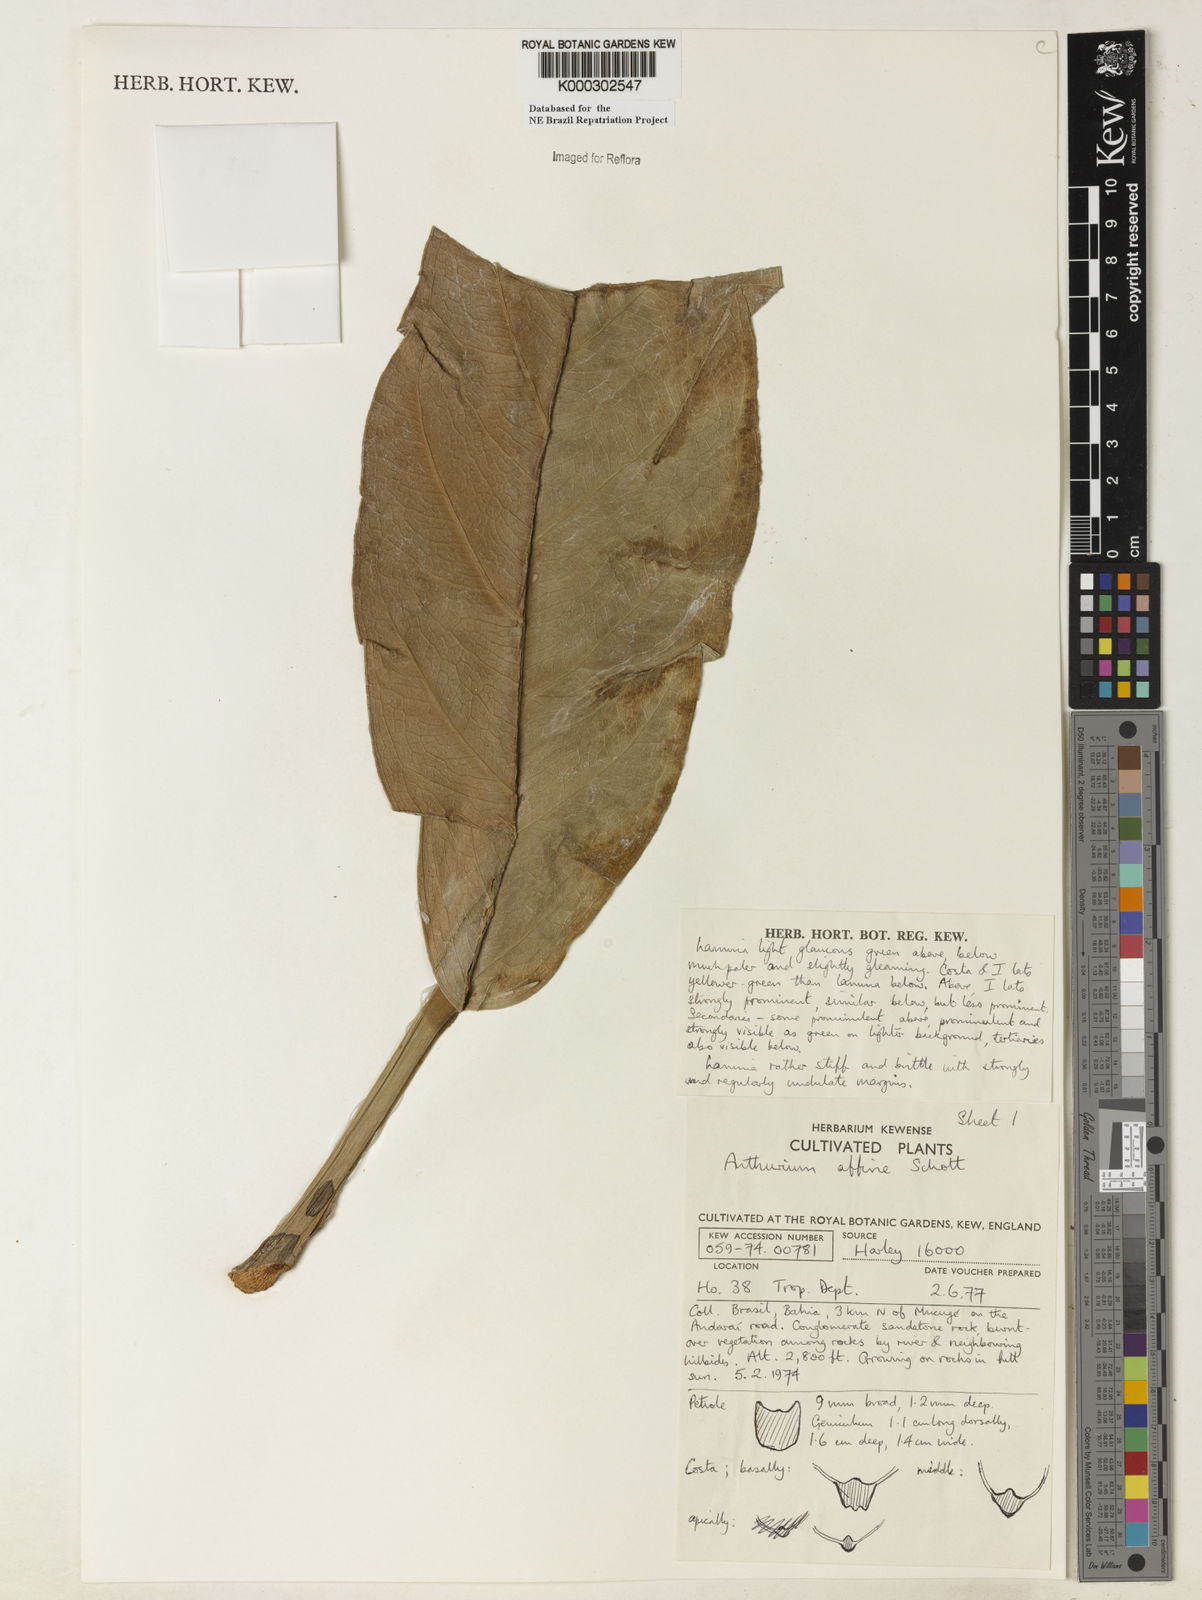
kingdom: Plantae
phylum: Tracheophyta
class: Liliopsida
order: Alismatales
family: Araceae
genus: Anthurium
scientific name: Anthurium affine
